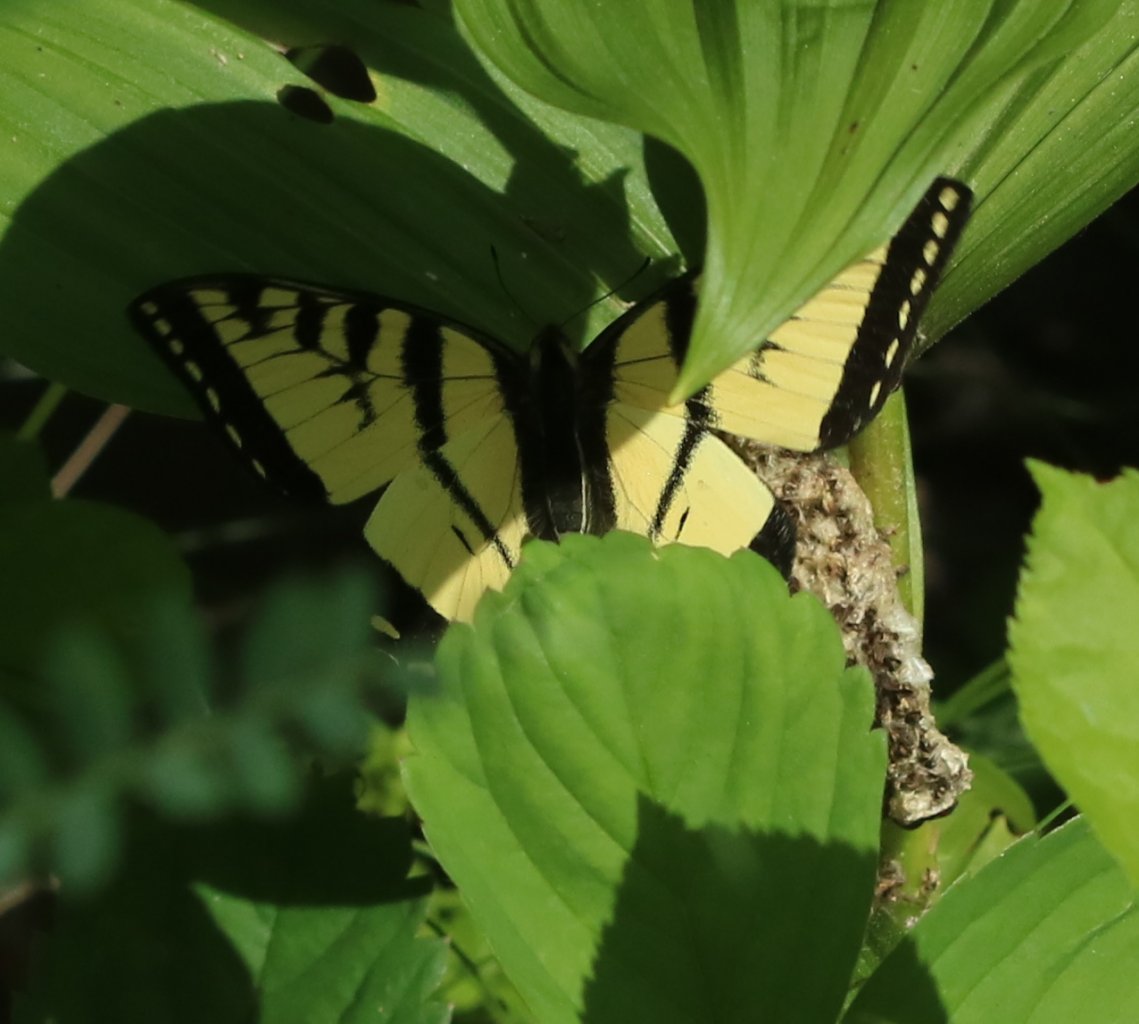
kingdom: Animalia
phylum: Arthropoda
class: Insecta
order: Lepidoptera
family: Papilionidae
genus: Pterourus
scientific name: Pterourus canadensis
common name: Canadian Tiger Swallowtail
